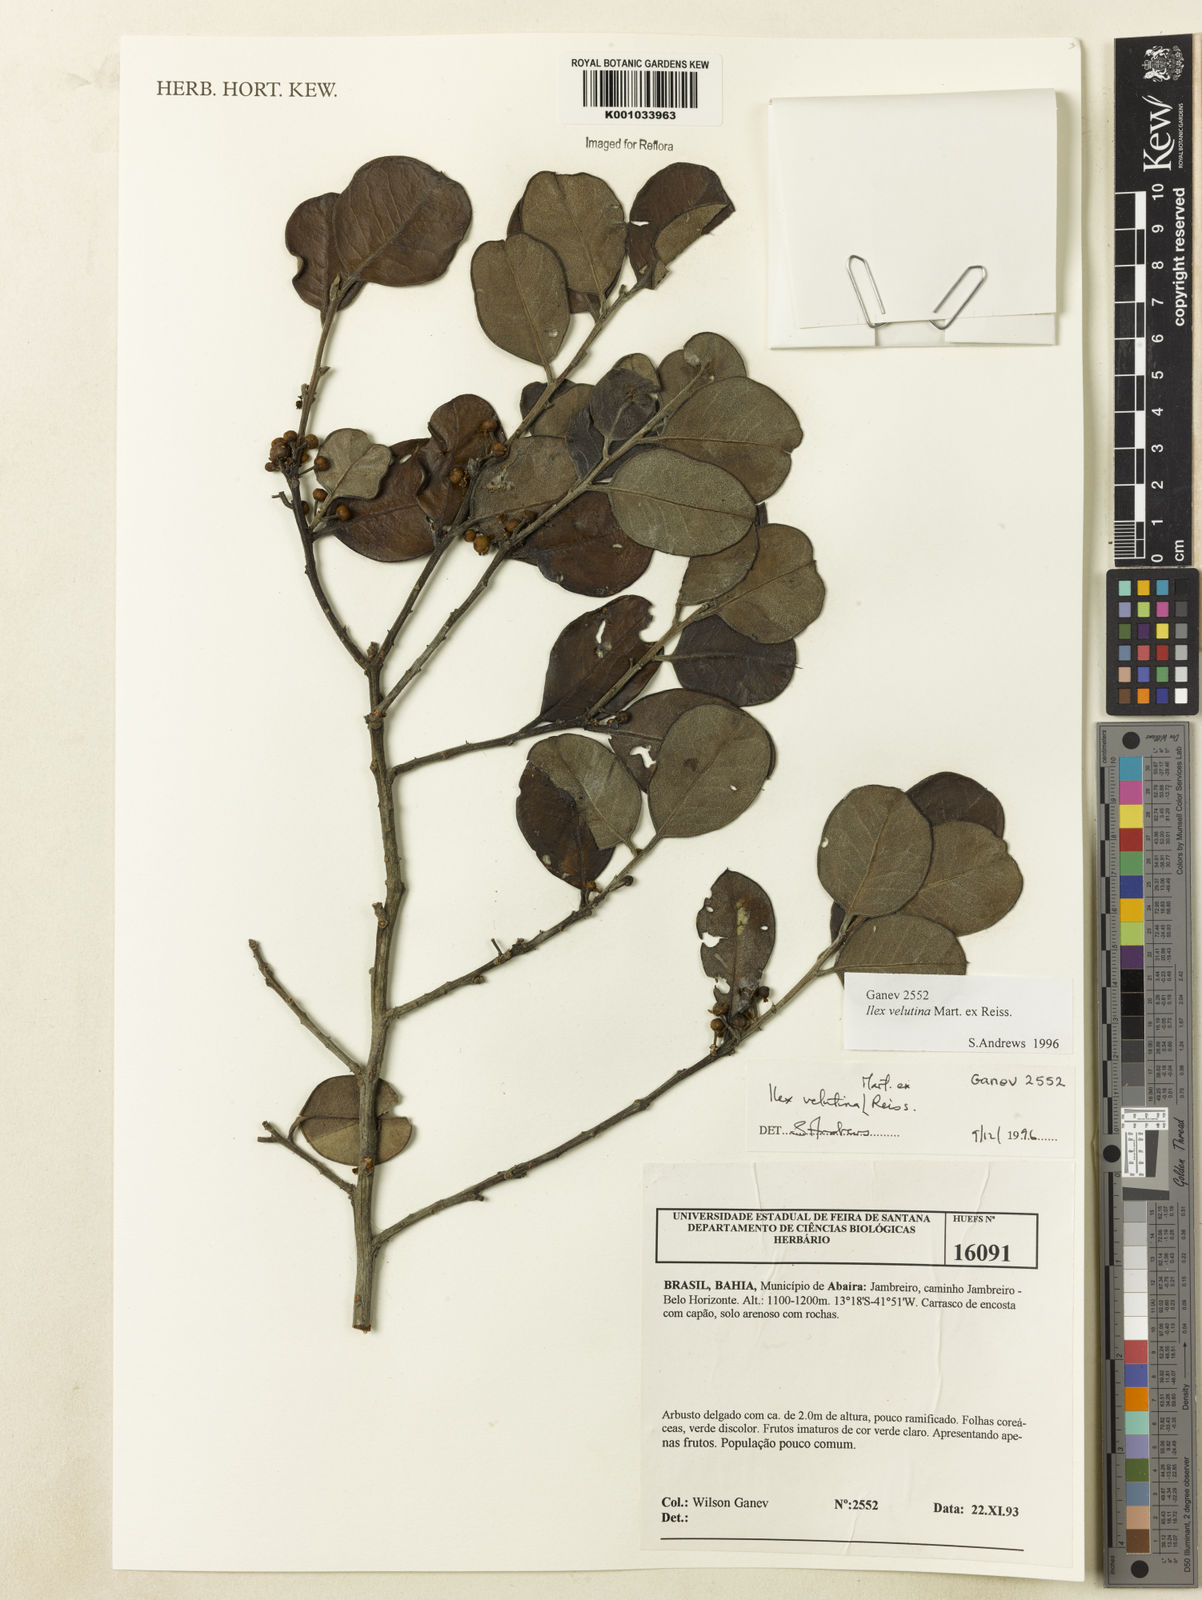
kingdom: Plantae
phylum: Tracheophyta
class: Magnoliopsida
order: Aquifoliales
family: Aquifoliaceae
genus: Ilex
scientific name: Ilex velutina
